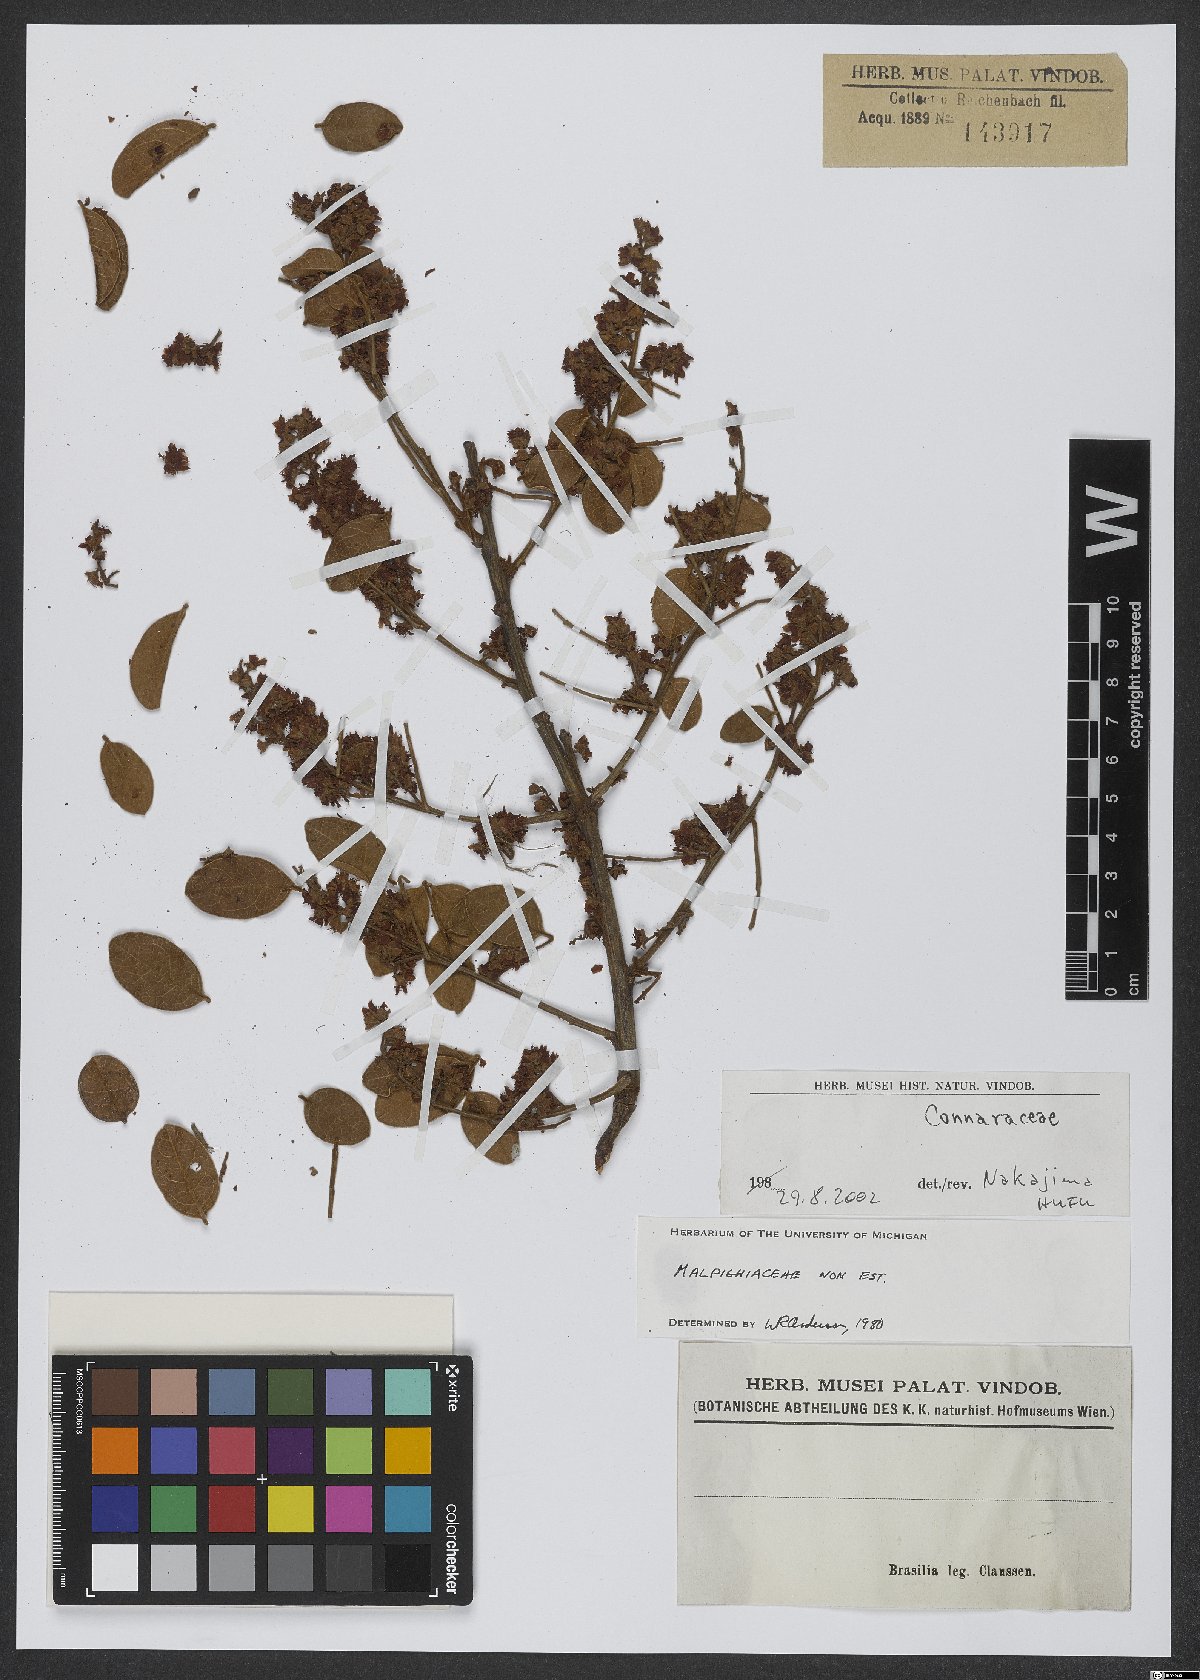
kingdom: Plantae
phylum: Tracheophyta
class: Magnoliopsida
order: Oxalidales
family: Connaraceae
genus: Rourea
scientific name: Rourea induta
